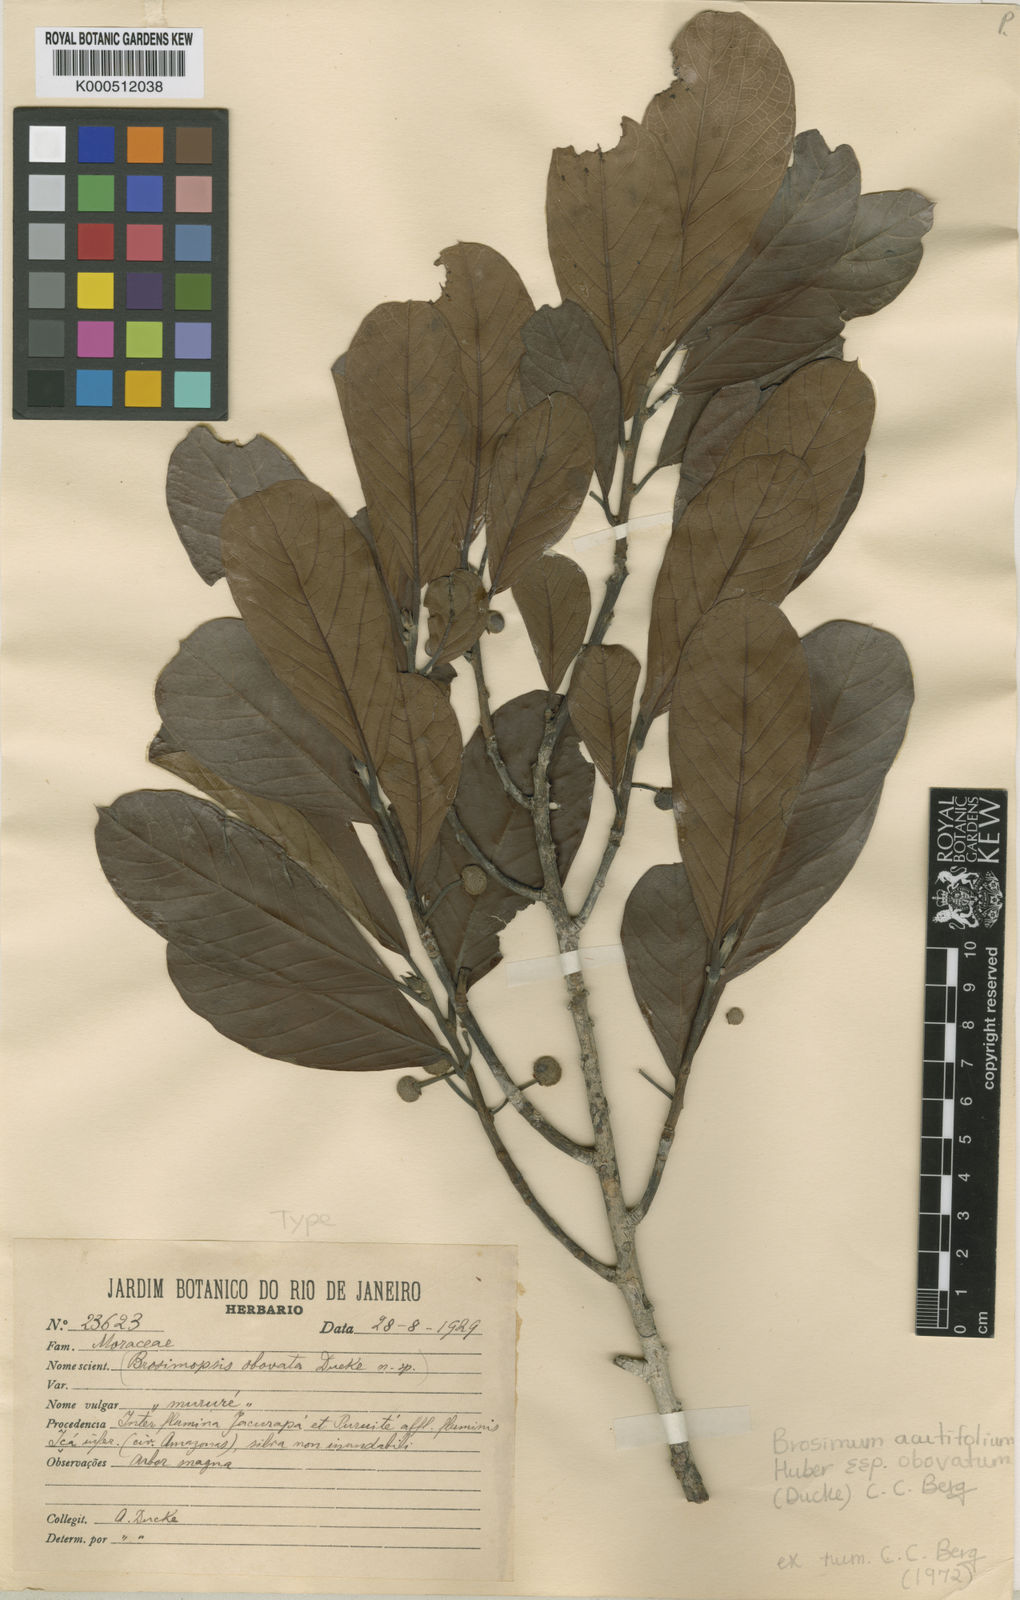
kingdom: Plantae
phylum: Tracheophyta
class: Magnoliopsida
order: Rosales
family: Moraceae
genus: Brosimum
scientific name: Brosimum acutifolium
